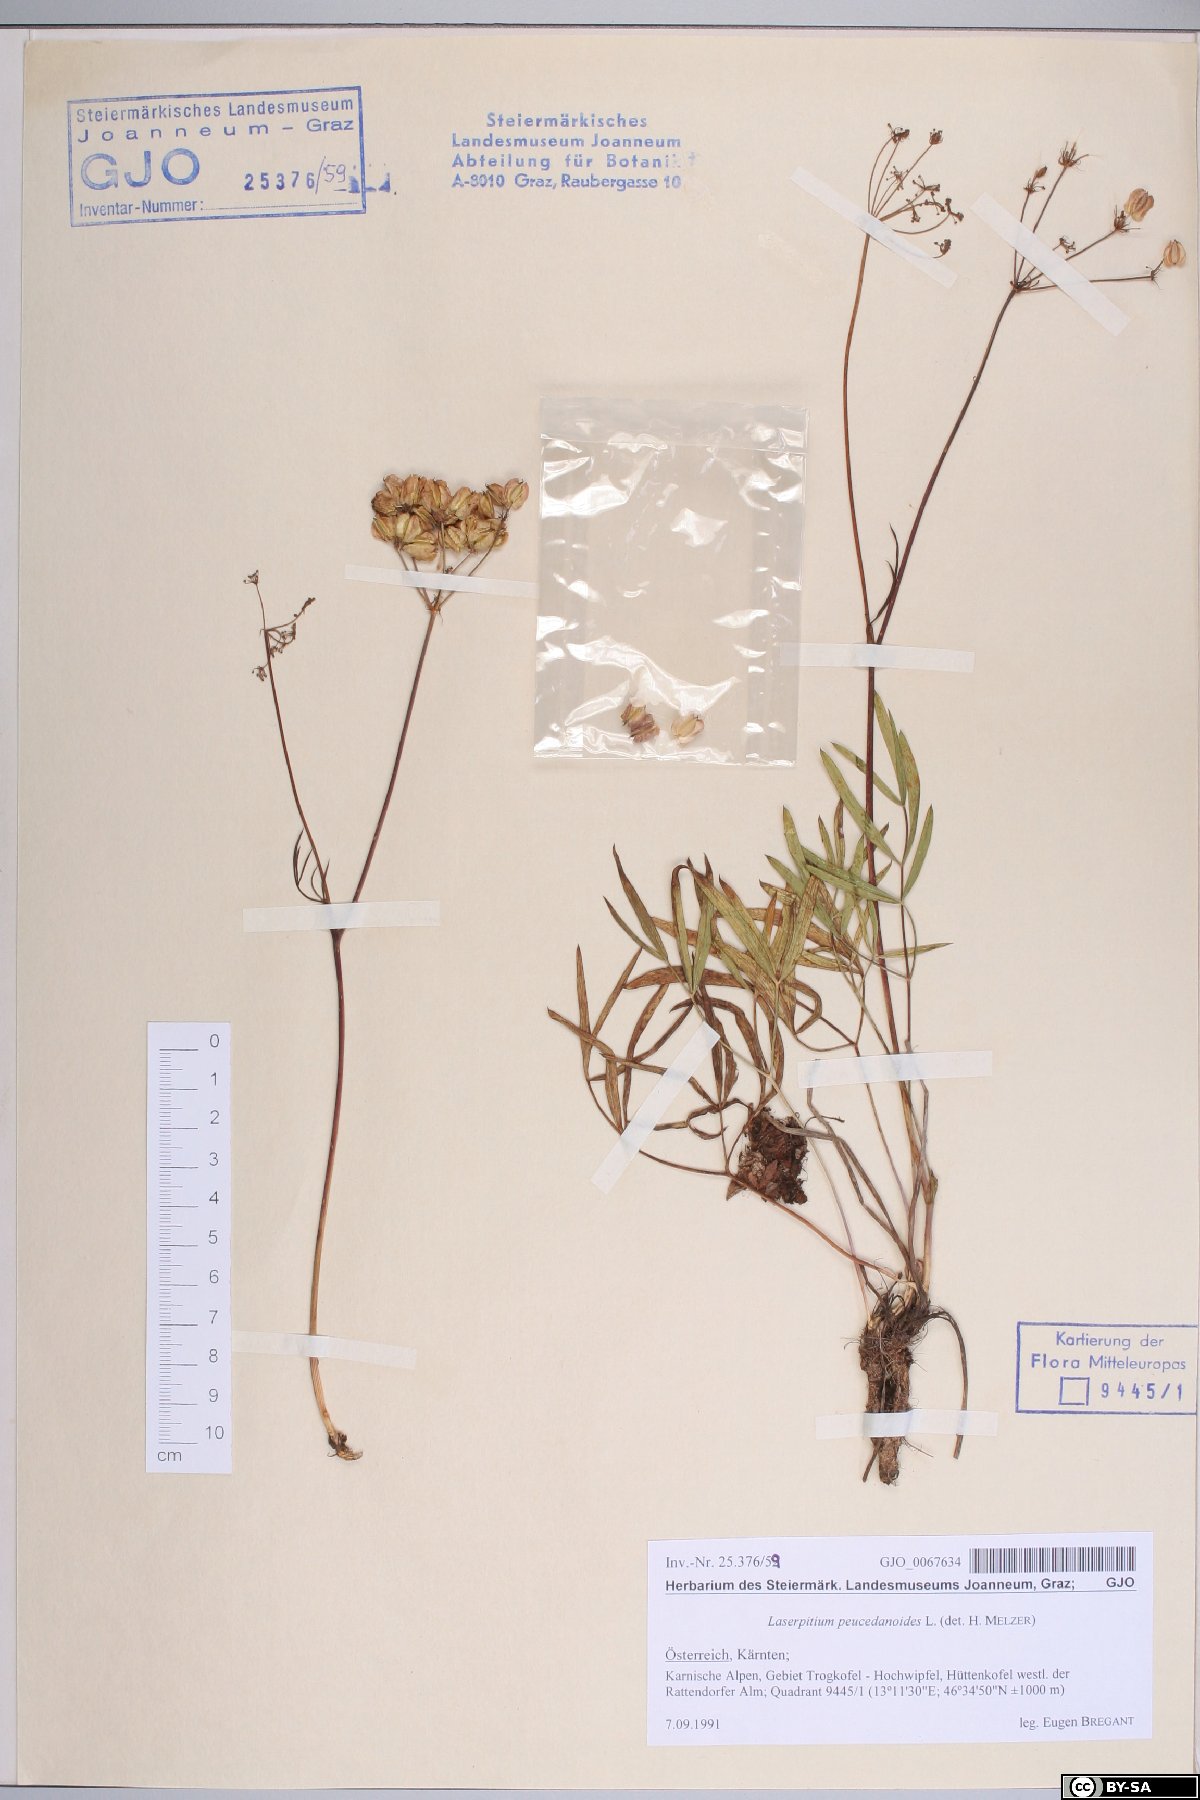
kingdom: Plantae
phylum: Tracheophyta
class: Magnoliopsida
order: Apiales
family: Apiaceae
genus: Laserpitium
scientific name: Laserpitium peucedanoides
